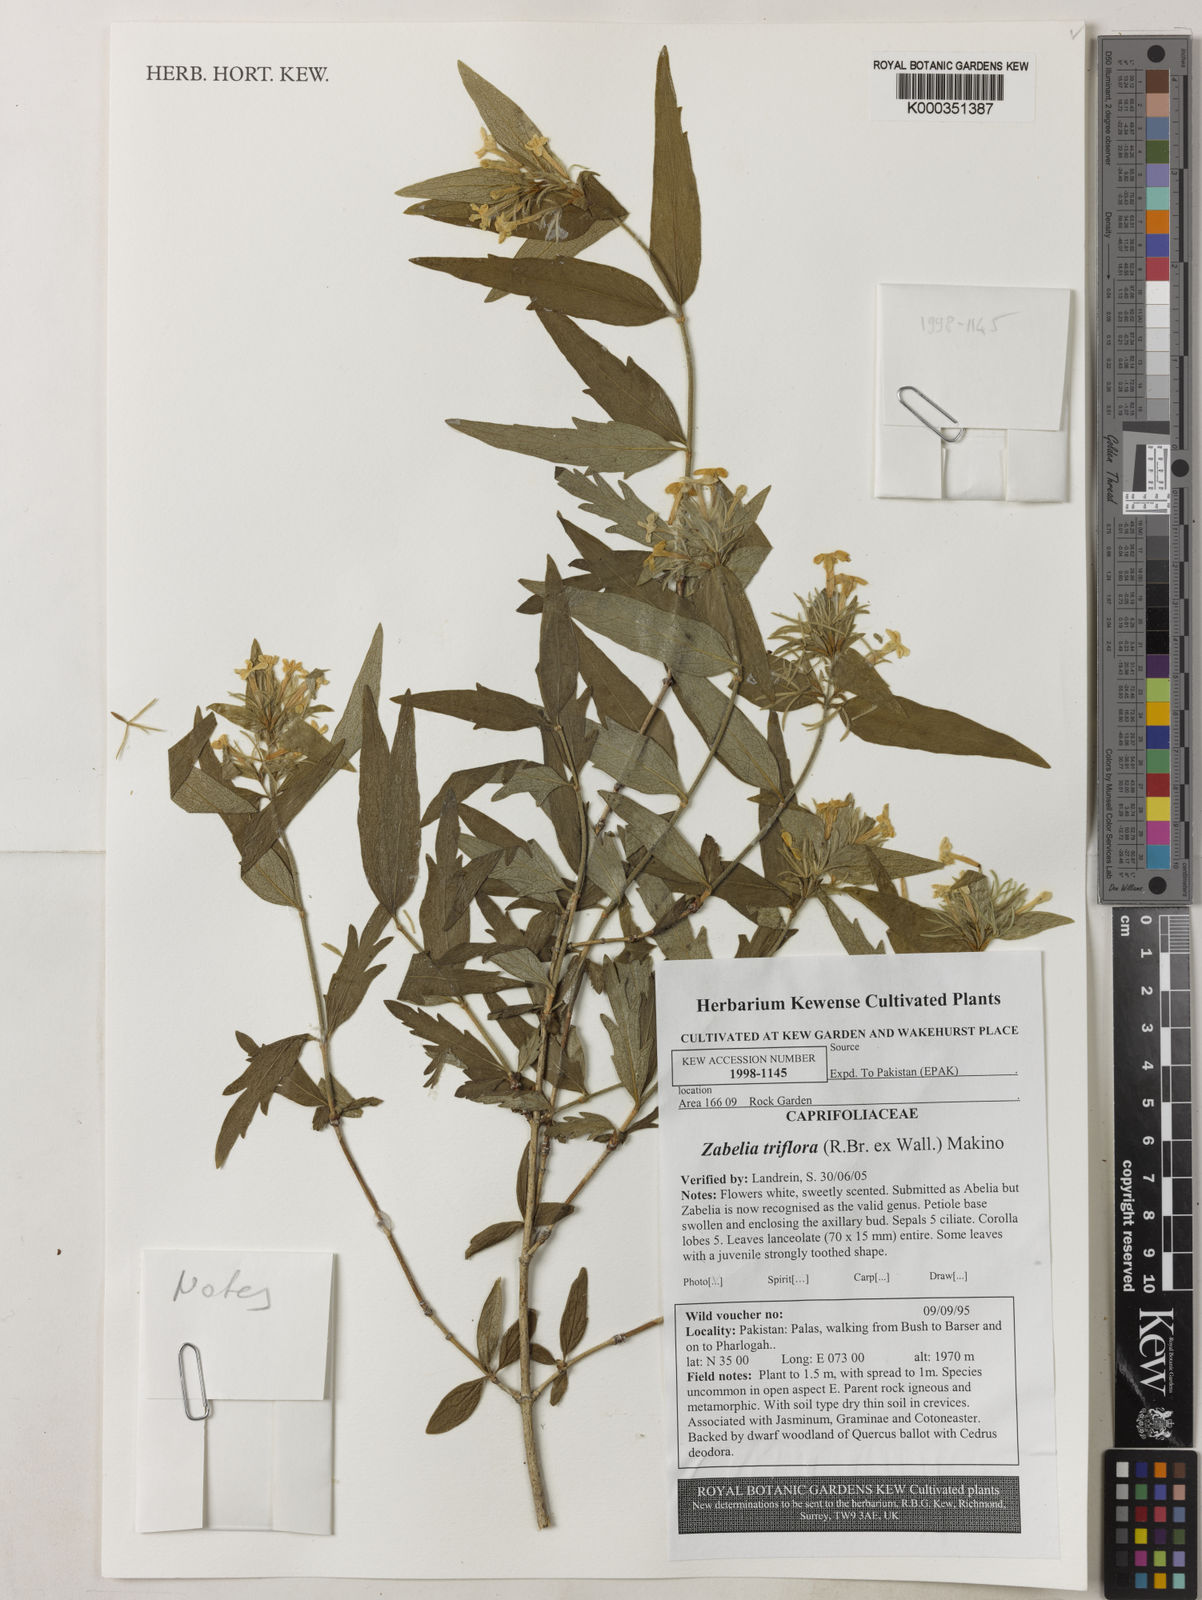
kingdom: Plantae
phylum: Tracheophyta
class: Magnoliopsida
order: Dipsacales
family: Caprifoliaceae
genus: Zabelia
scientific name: Zabelia triflora
